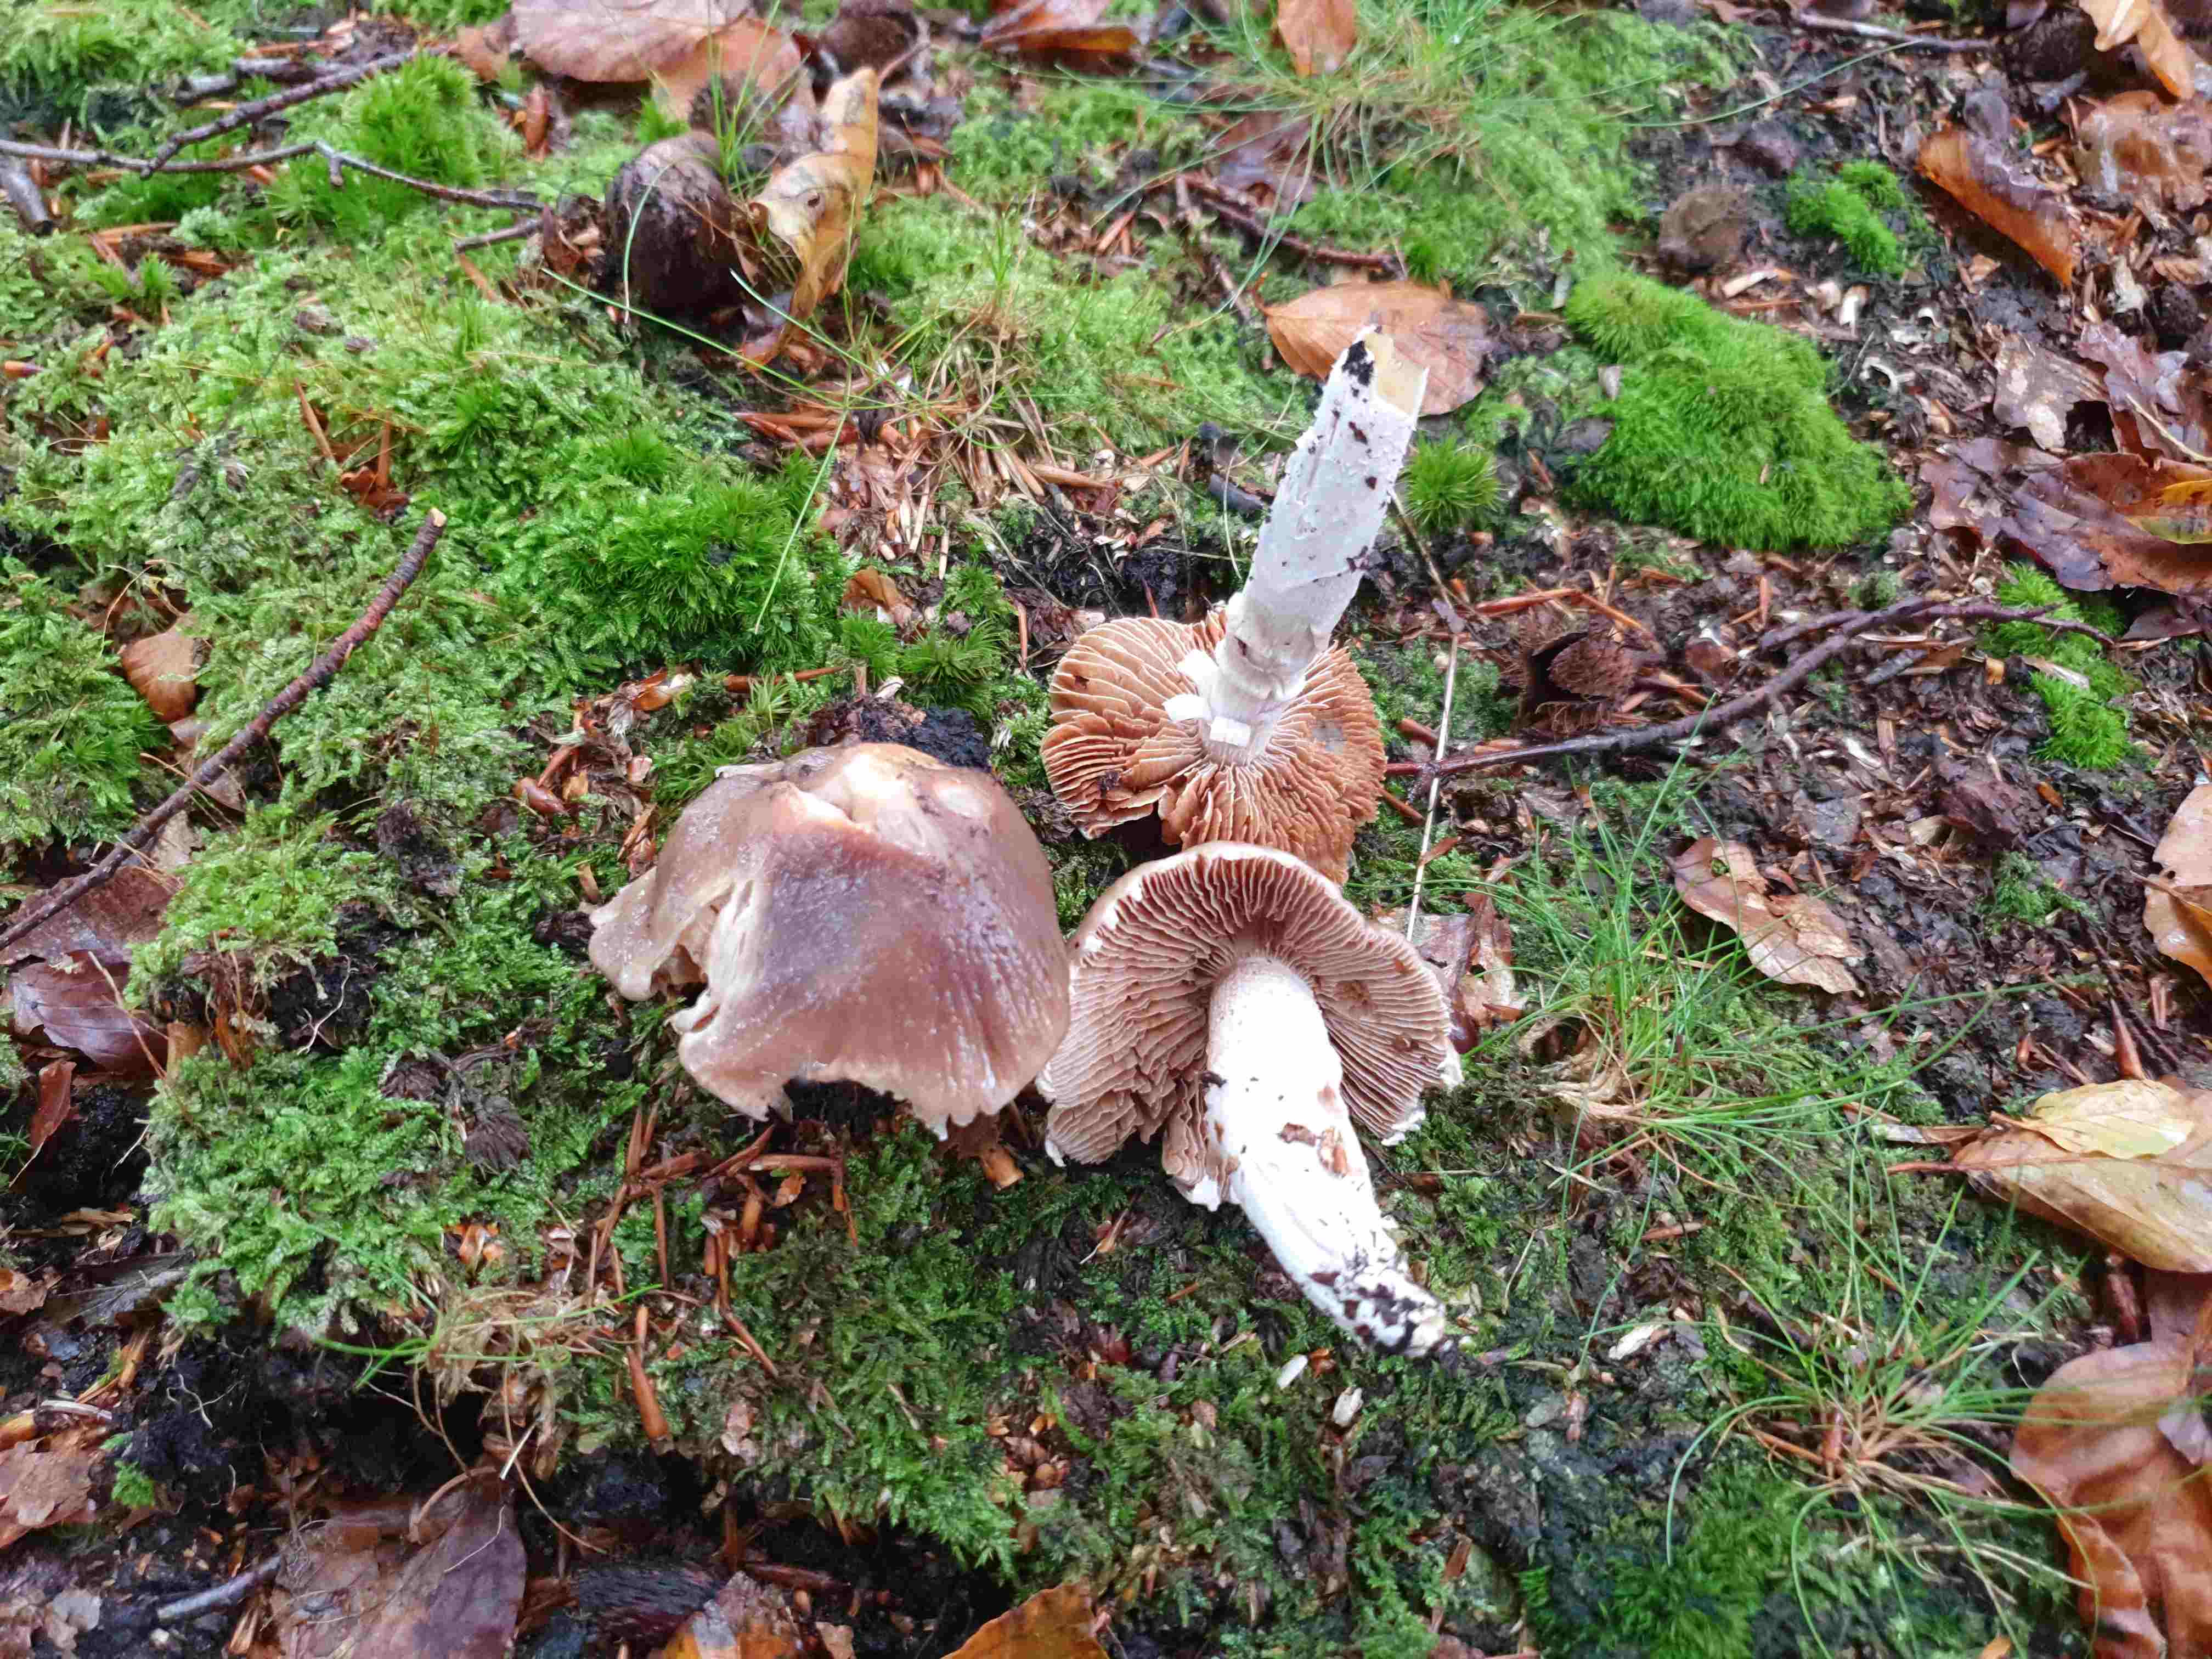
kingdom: Fungi
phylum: Basidiomycota
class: Agaricomycetes
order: Agaricales
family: Cortinariaceae
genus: Cortinarius
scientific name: Cortinarius elatior
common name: høj slørhat
